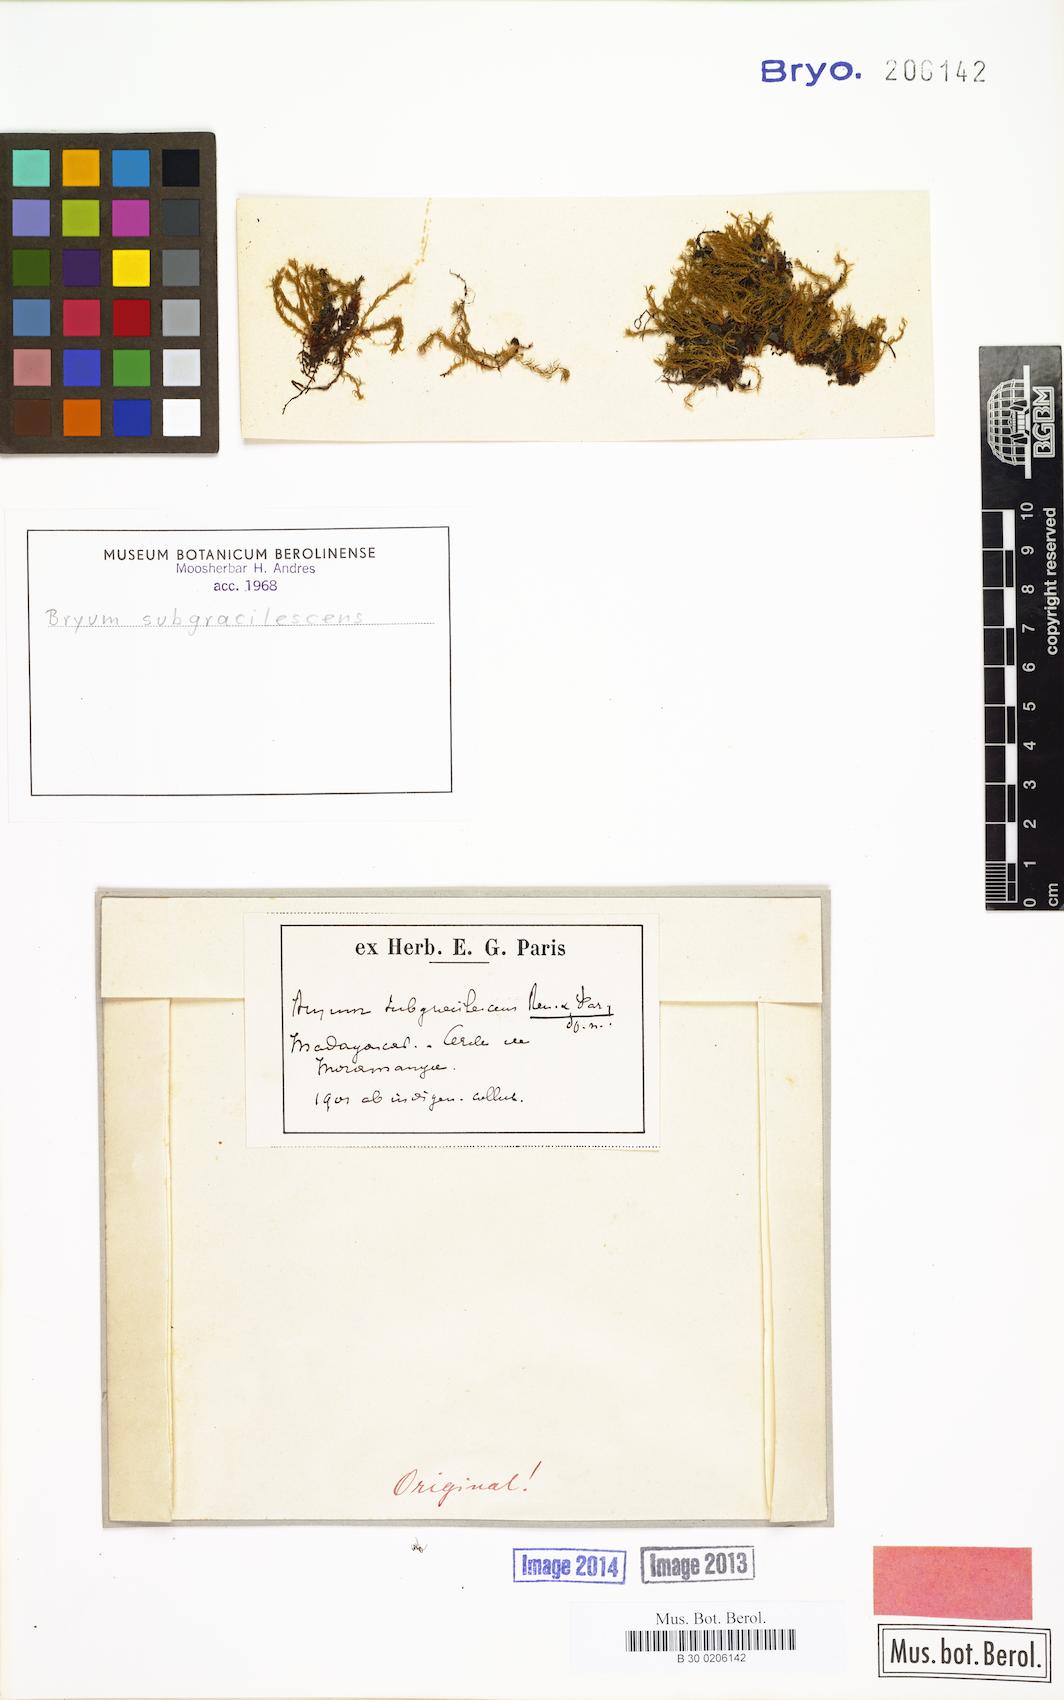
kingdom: Plantae
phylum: Bryophyta
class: Bryopsida
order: Bryales
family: Bryaceae
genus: Rosulabryum
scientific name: Rosulabryum erythrocaulon
